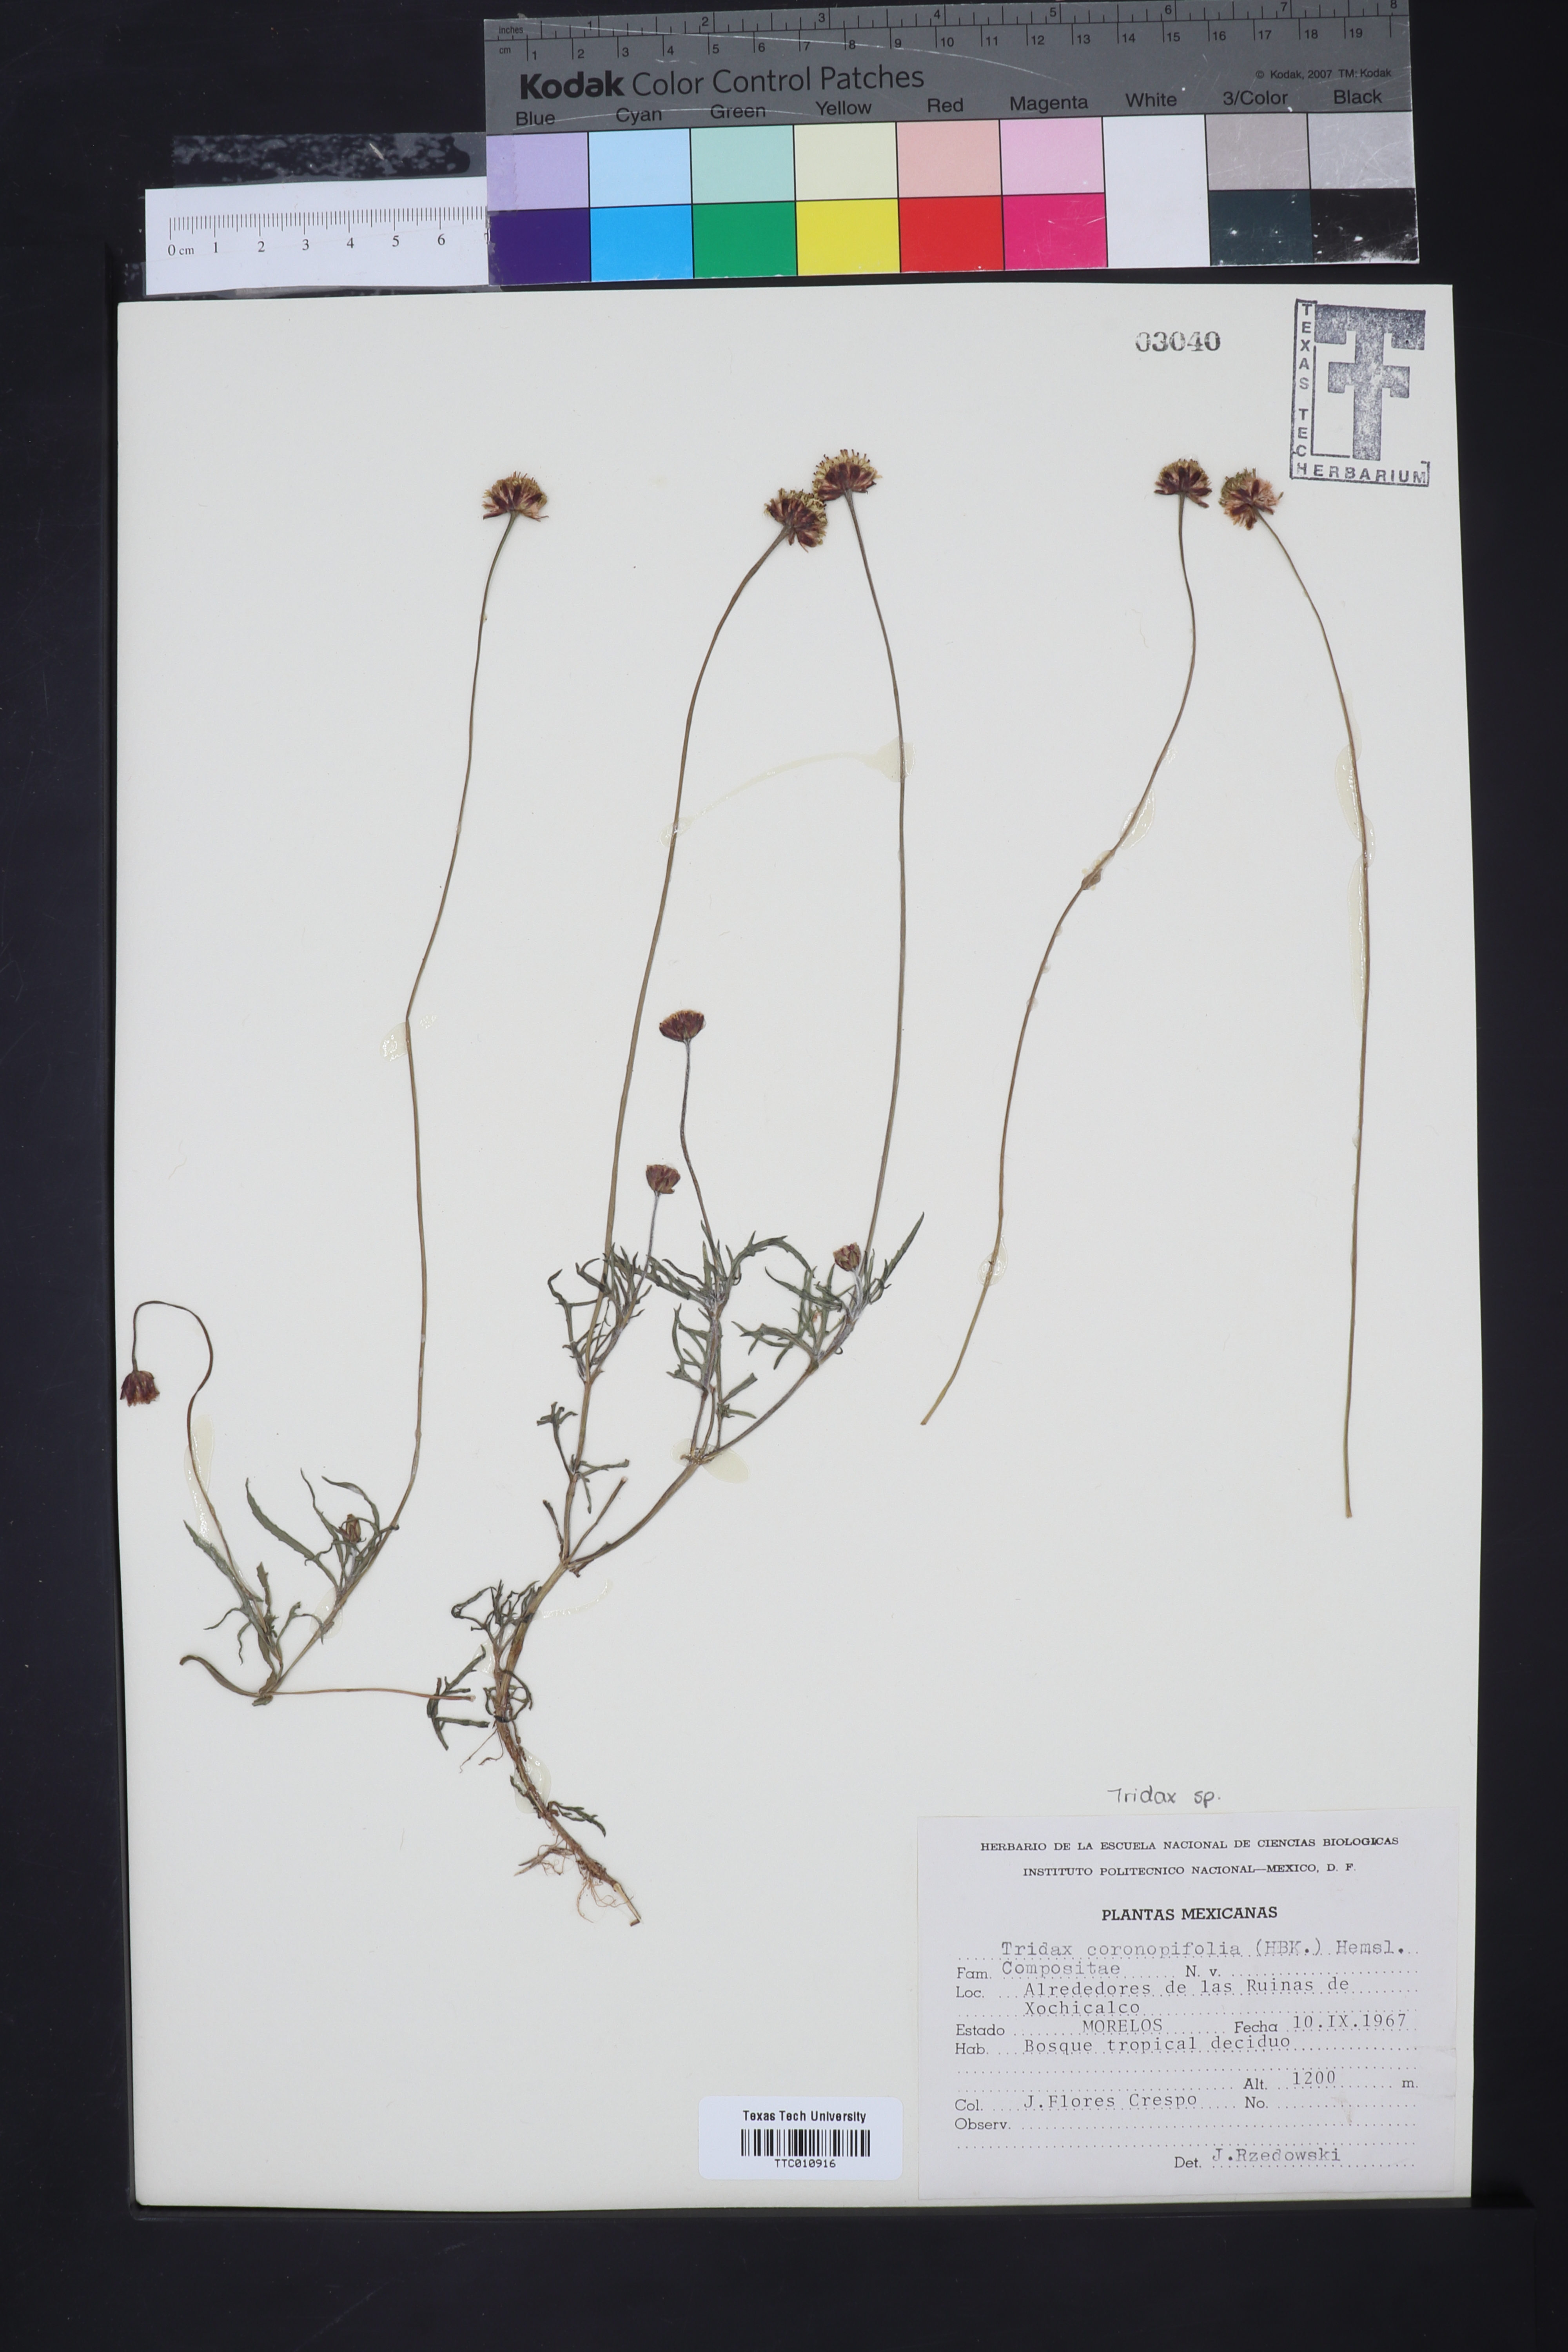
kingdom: Plantae
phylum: Tracheophyta
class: Magnoliopsida
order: Asterales
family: Asteraceae
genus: Tridax
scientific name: Tridax coronopifolia
